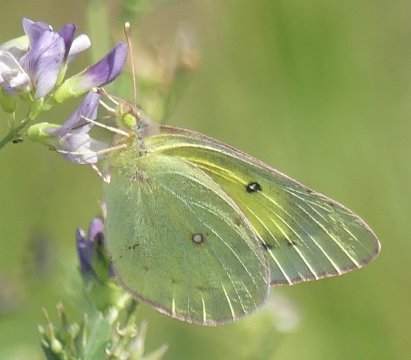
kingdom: Animalia
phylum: Arthropoda
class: Insecta
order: Lepidoptera
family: Pieridae
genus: Colias
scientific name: Colias philodice
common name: Clouded Sulphur
